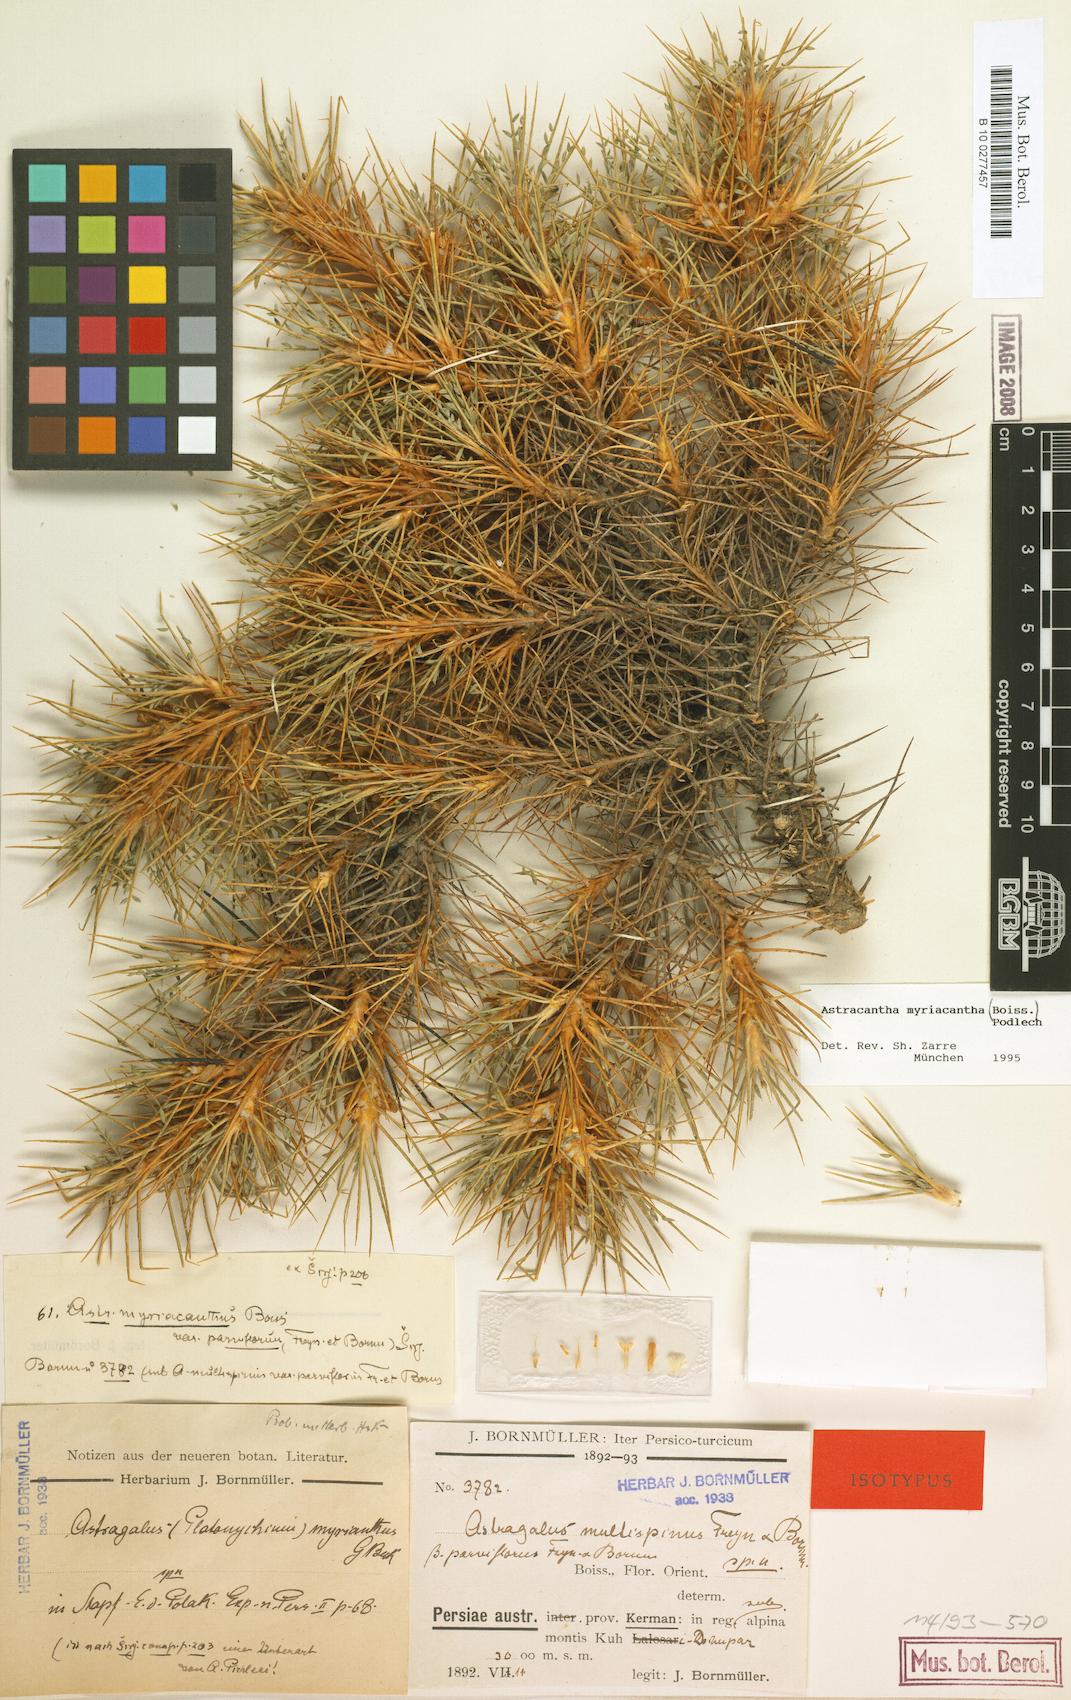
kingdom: Plantae
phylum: Tracheophyta
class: Magnoliopsida
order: Fabales
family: Fabaceae
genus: Astragalus
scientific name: Astragalus myriacanthus
